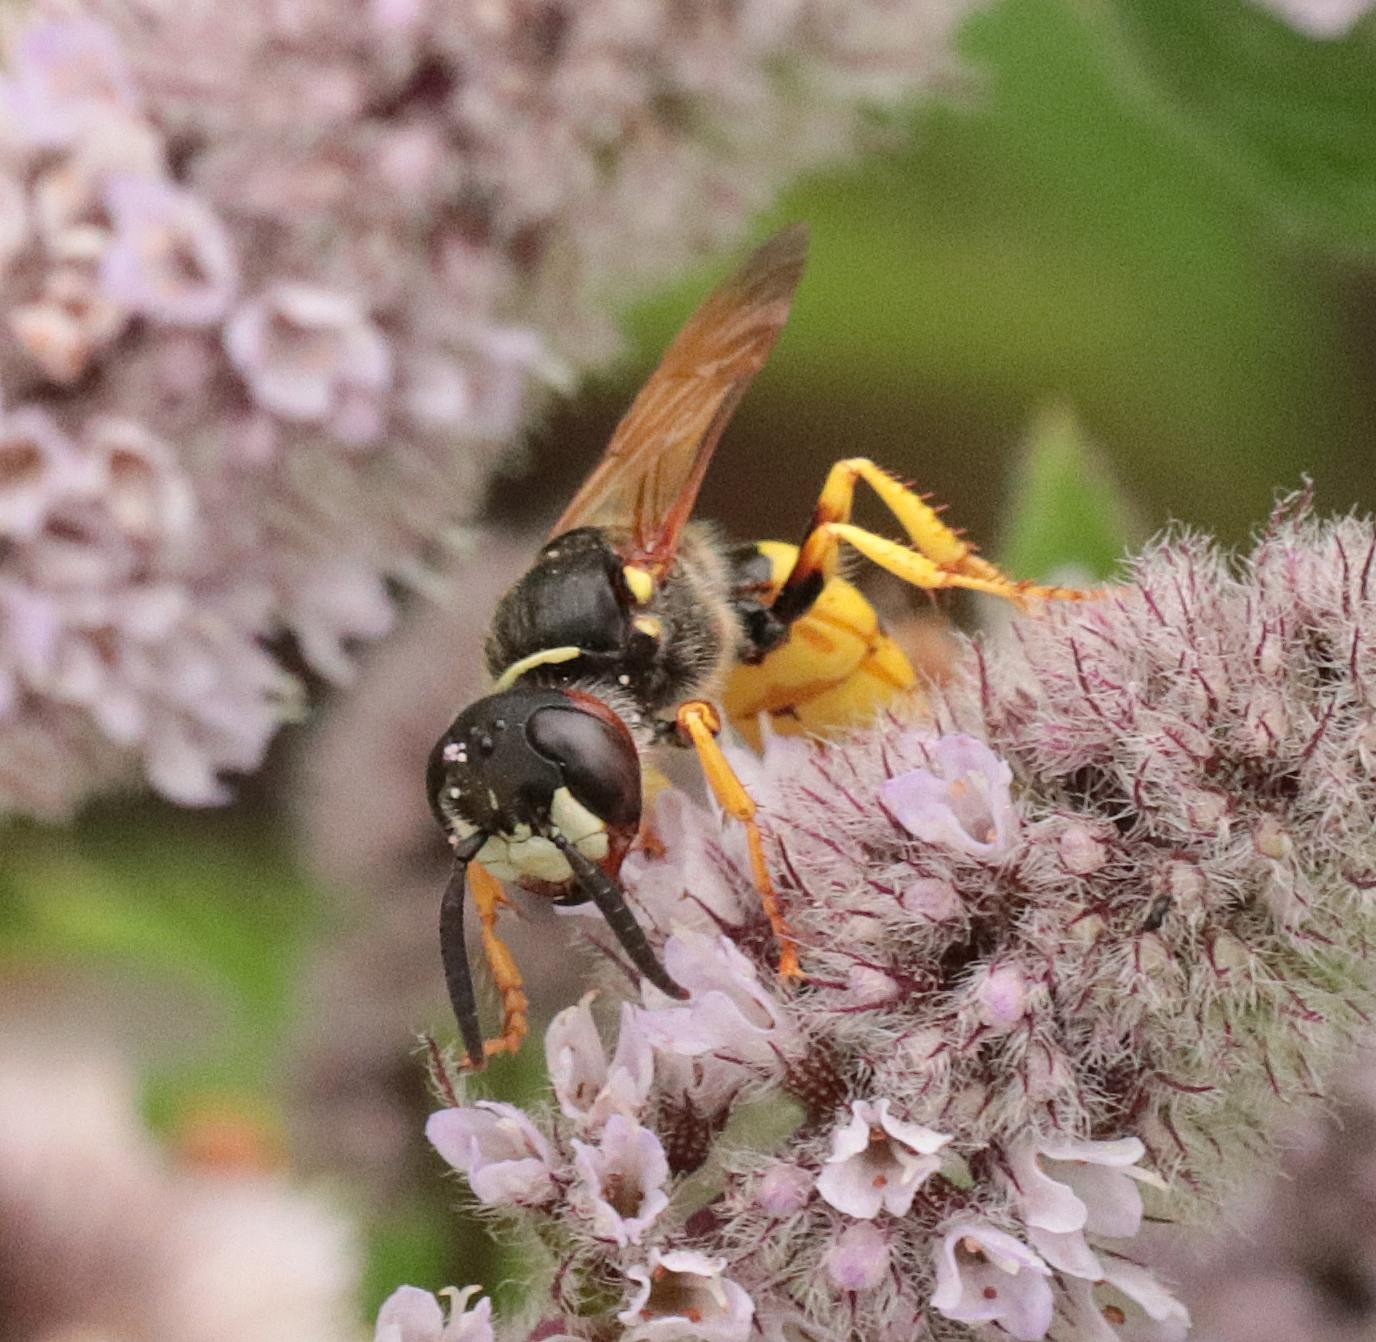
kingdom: Animalia
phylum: Arthropoda
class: Insecta
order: Hymenoptera
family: Crabronidae
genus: Philanthus
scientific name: Philanthus triangulum
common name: Biulv
